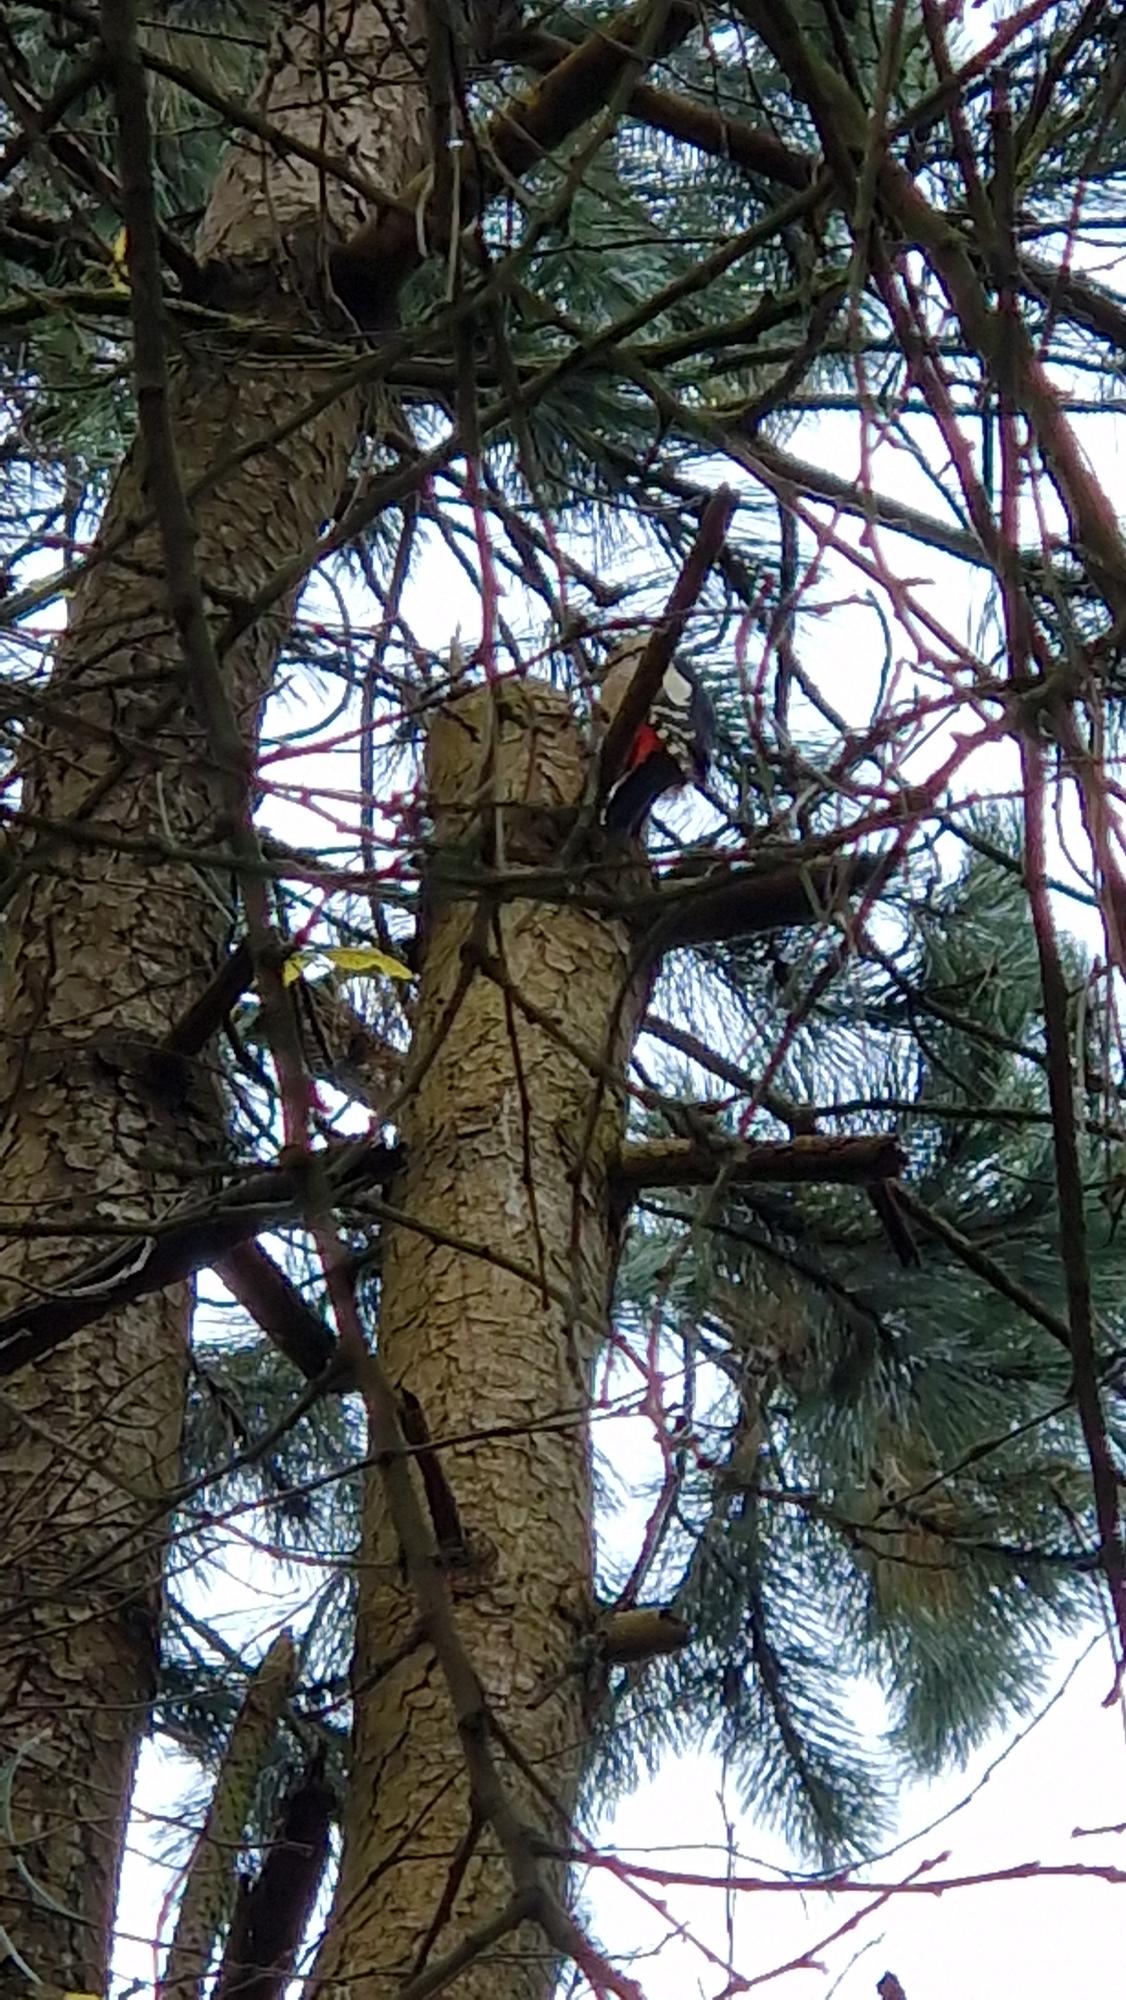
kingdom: Animalia
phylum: Chordata
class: Aves
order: Piciformes
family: Picidae
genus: Dendrocopos
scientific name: Dendrocopos major
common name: Stor flagspætte
